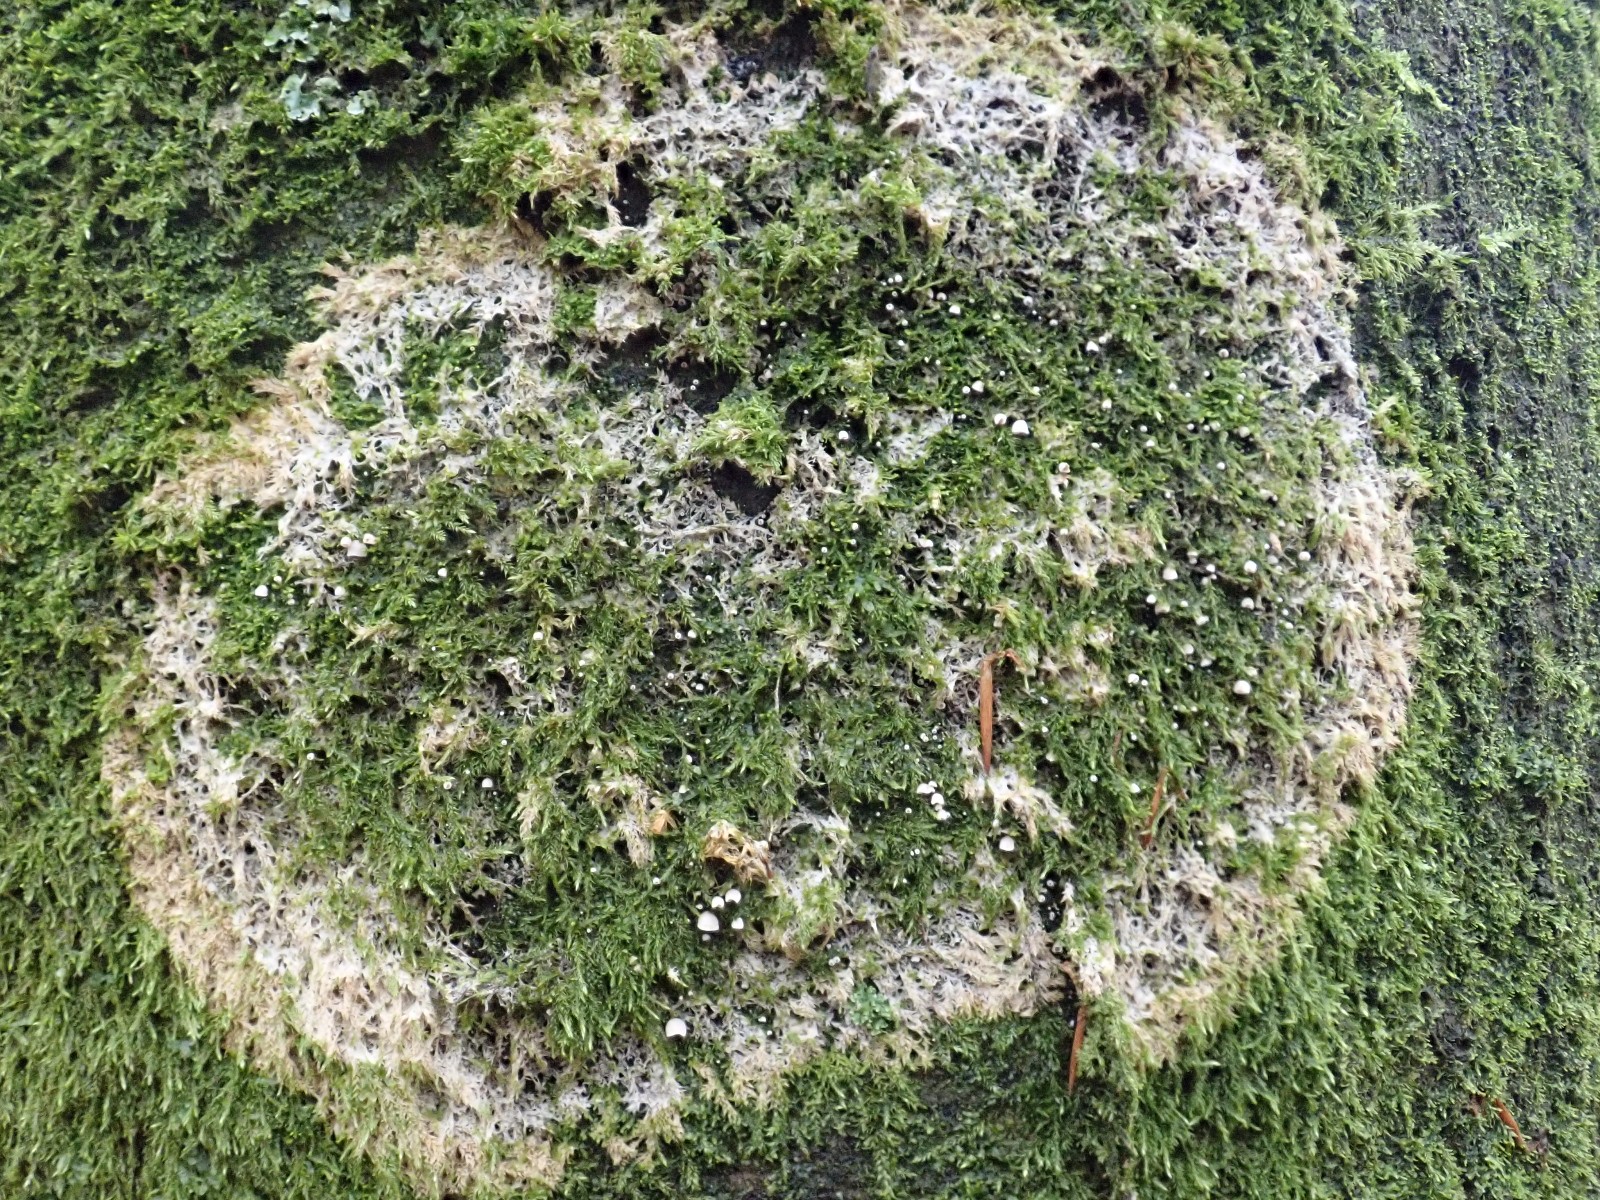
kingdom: Fungi
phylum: Basidiomycota
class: Agaricomycetes
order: Agaricales
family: Chromocyphellaceae
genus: Chromocyphella
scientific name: Chromocyphella muscicola
